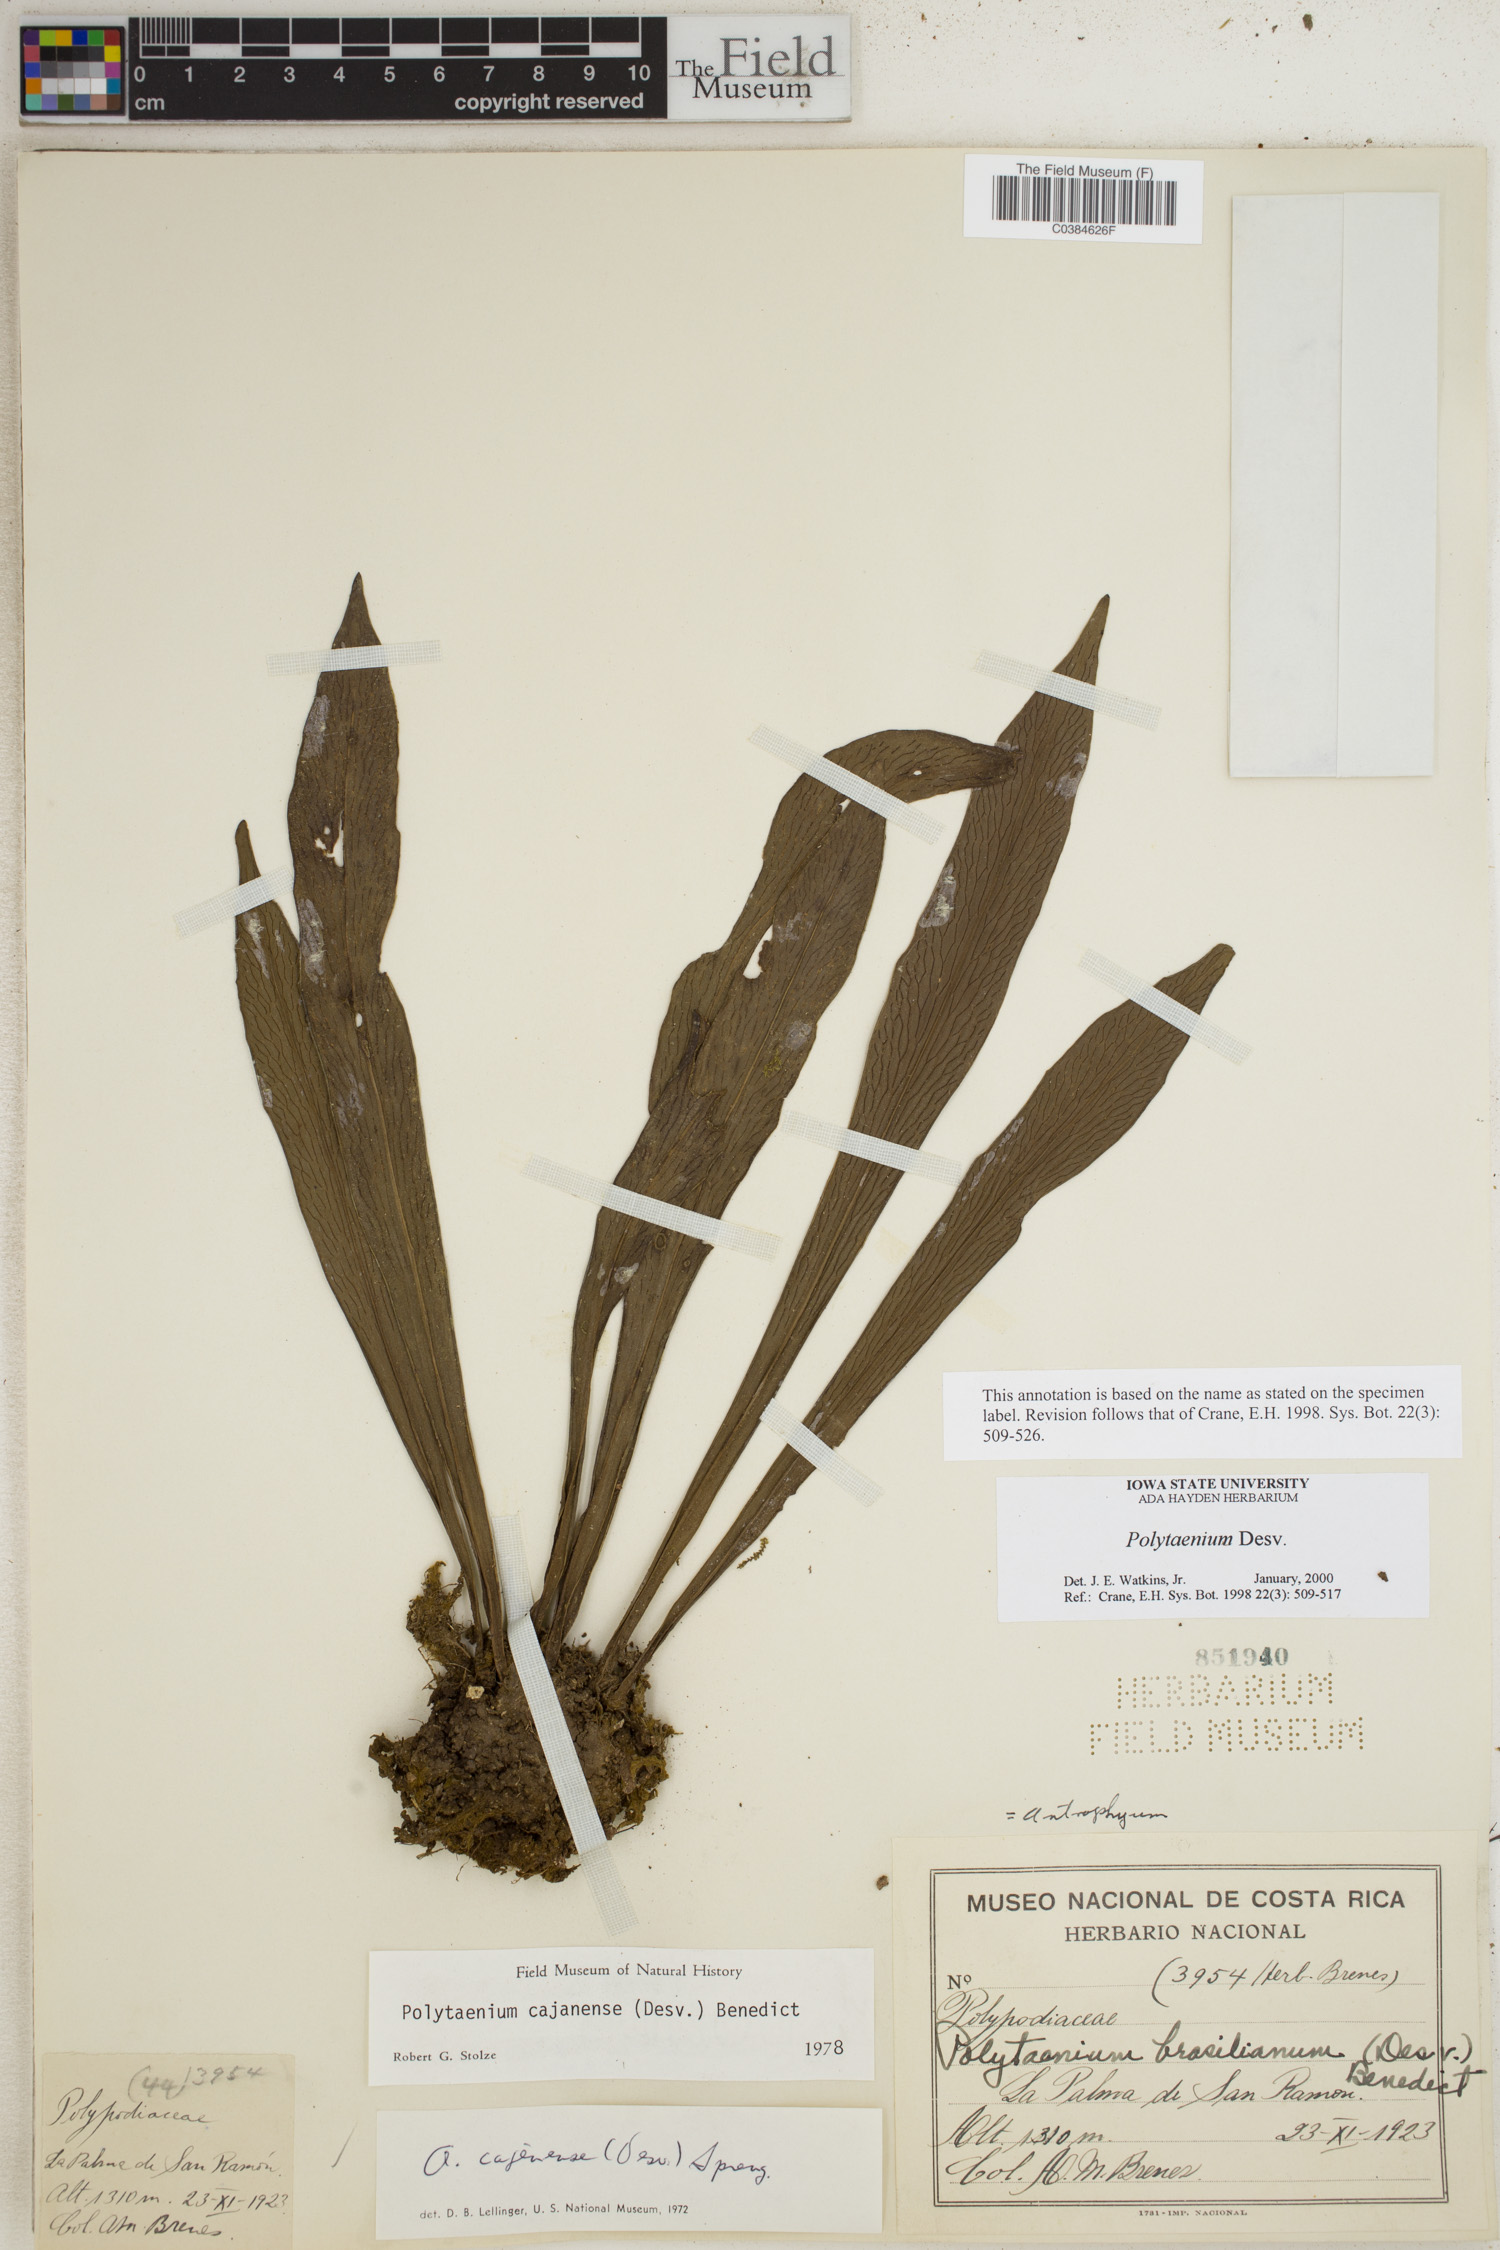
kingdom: Plantae
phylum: Tracheophyta
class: Polypodiopsida
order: Polypodiales
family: Pteridaceae
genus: Polytaenium
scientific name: Polytaenium
